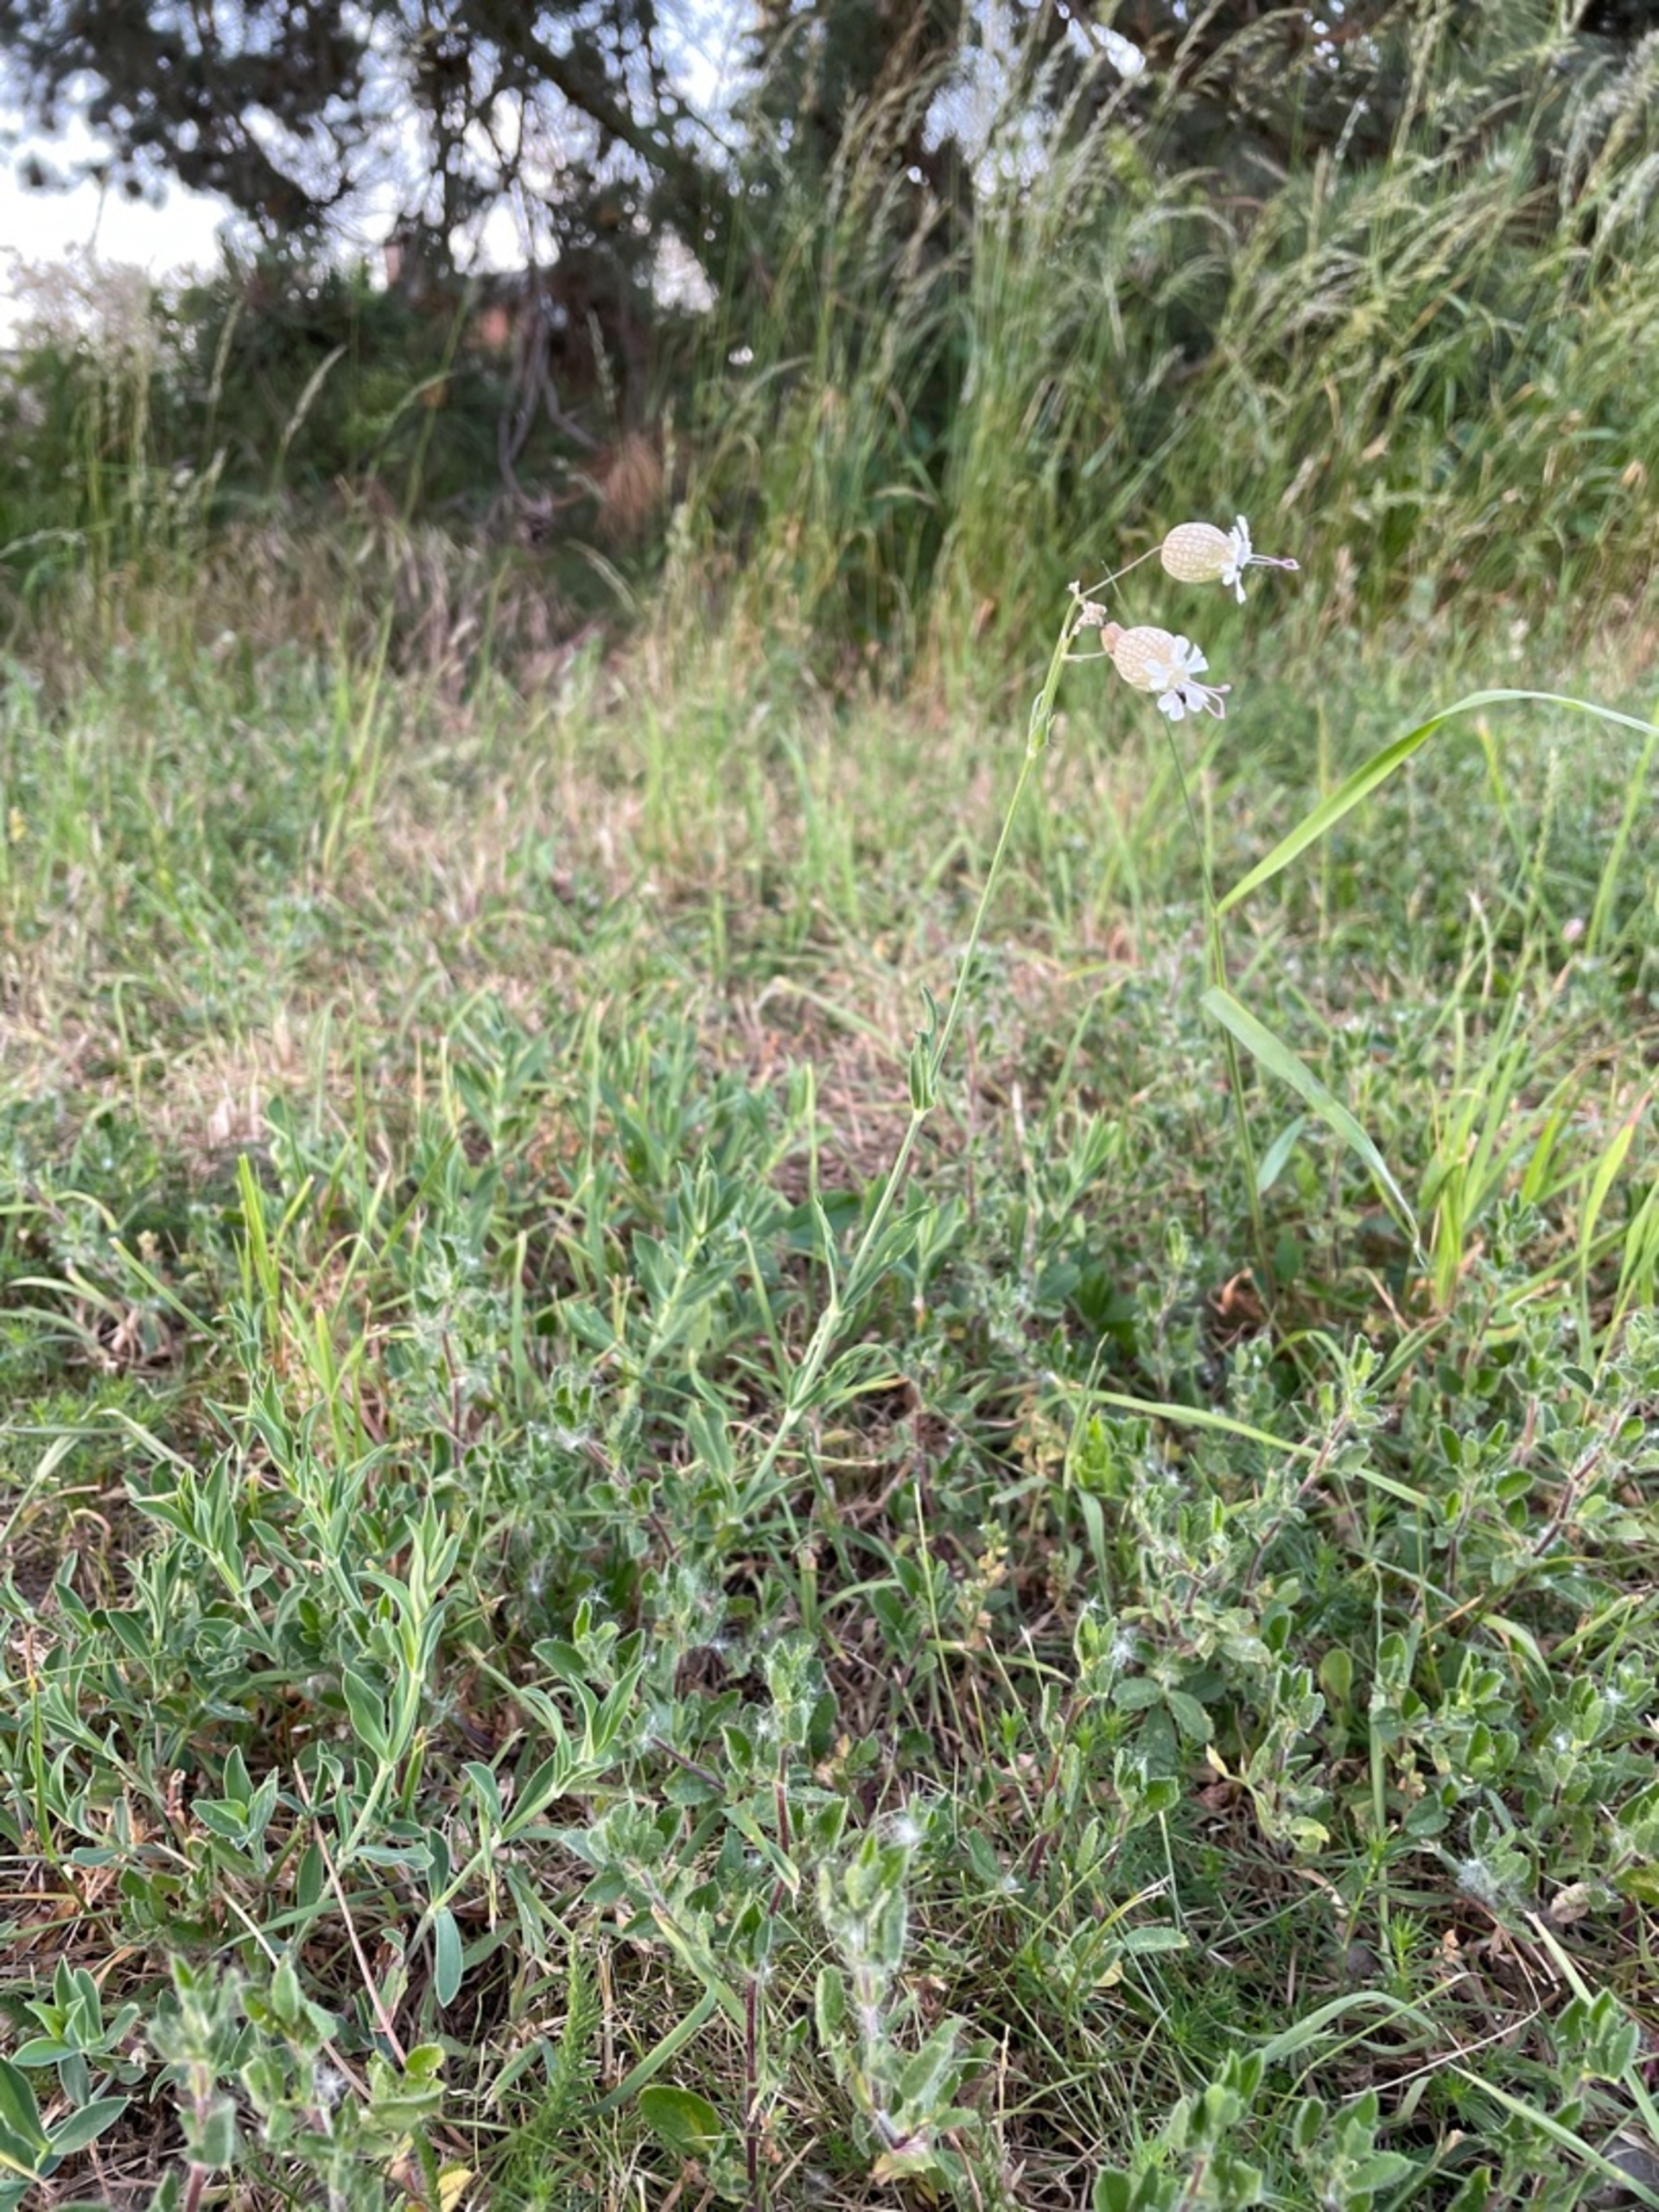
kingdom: Plantae
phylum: Tracheophyta
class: Magnoliopsida
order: Caryophyllales
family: Caryophyllaceae
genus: Silene
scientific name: Silene vulgaris
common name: Blæresmælde
